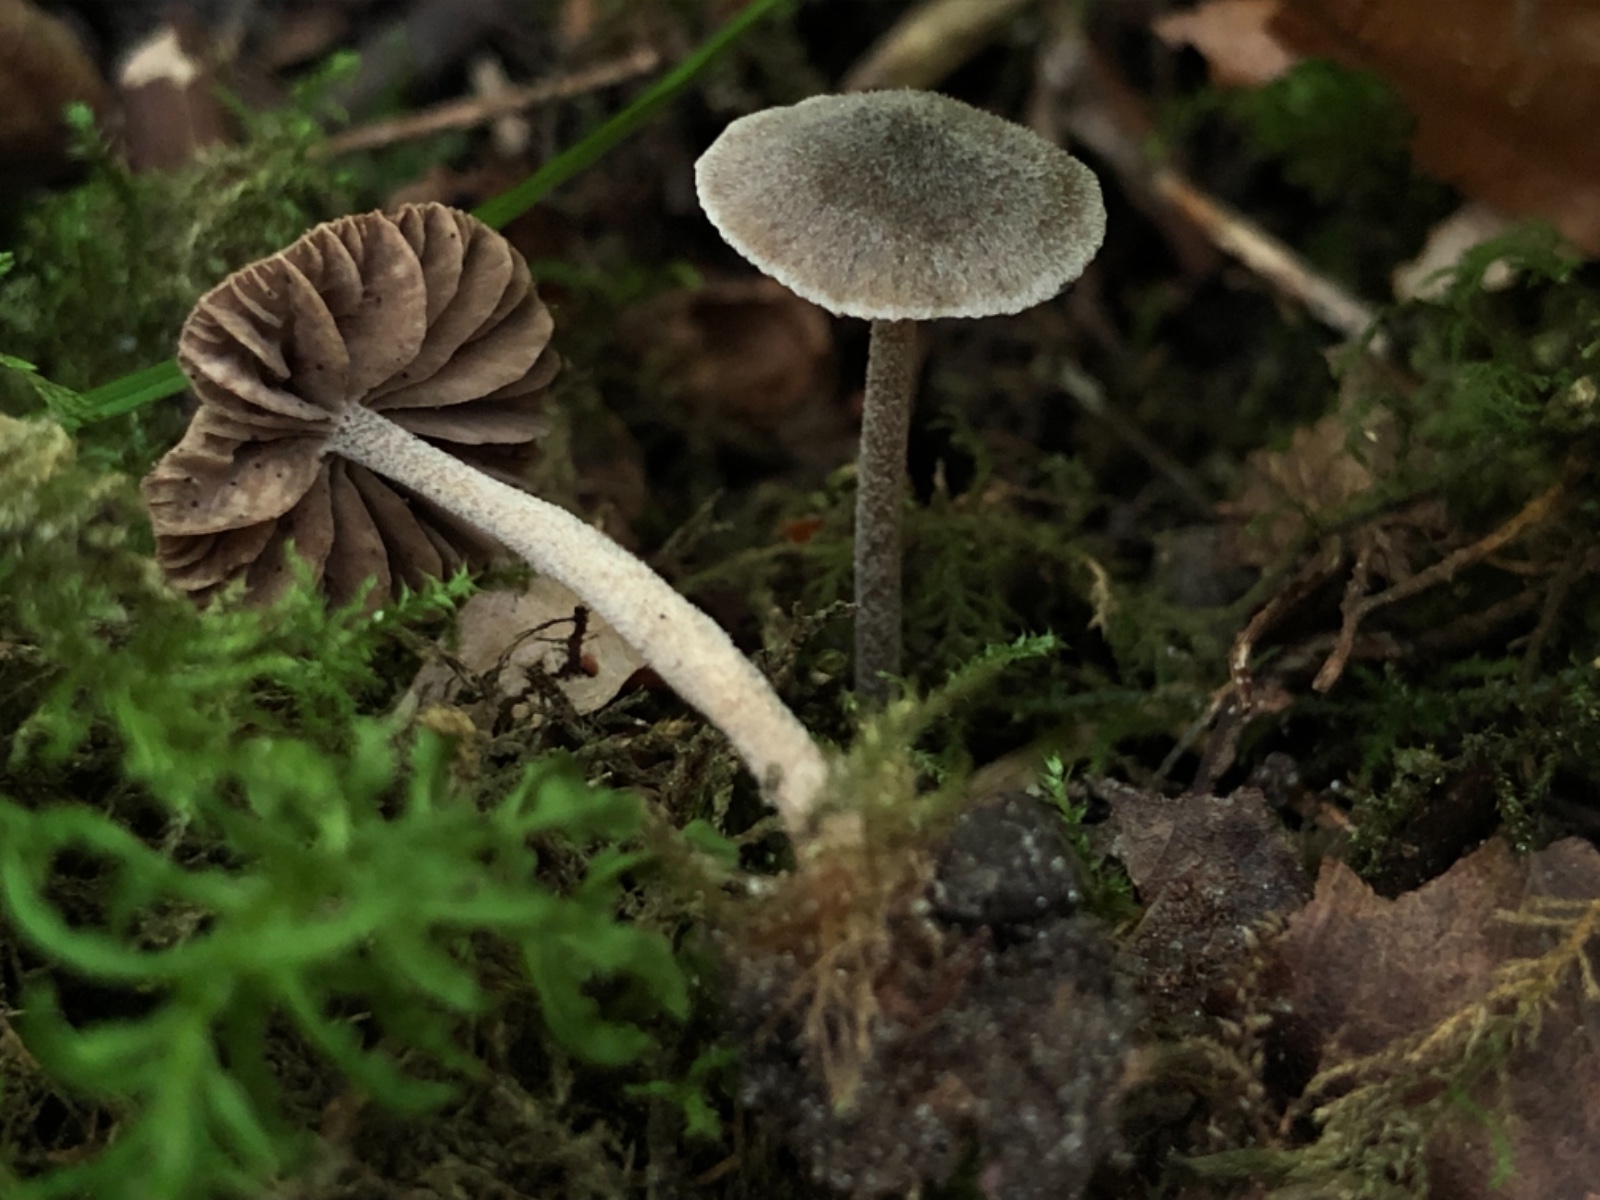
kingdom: Fungi
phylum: Basidiomycota
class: Agaricomycetes
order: Agaricales
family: Entolomataceae
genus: Entoloma
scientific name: Entoloma dysthaloides
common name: dyster rødblad
